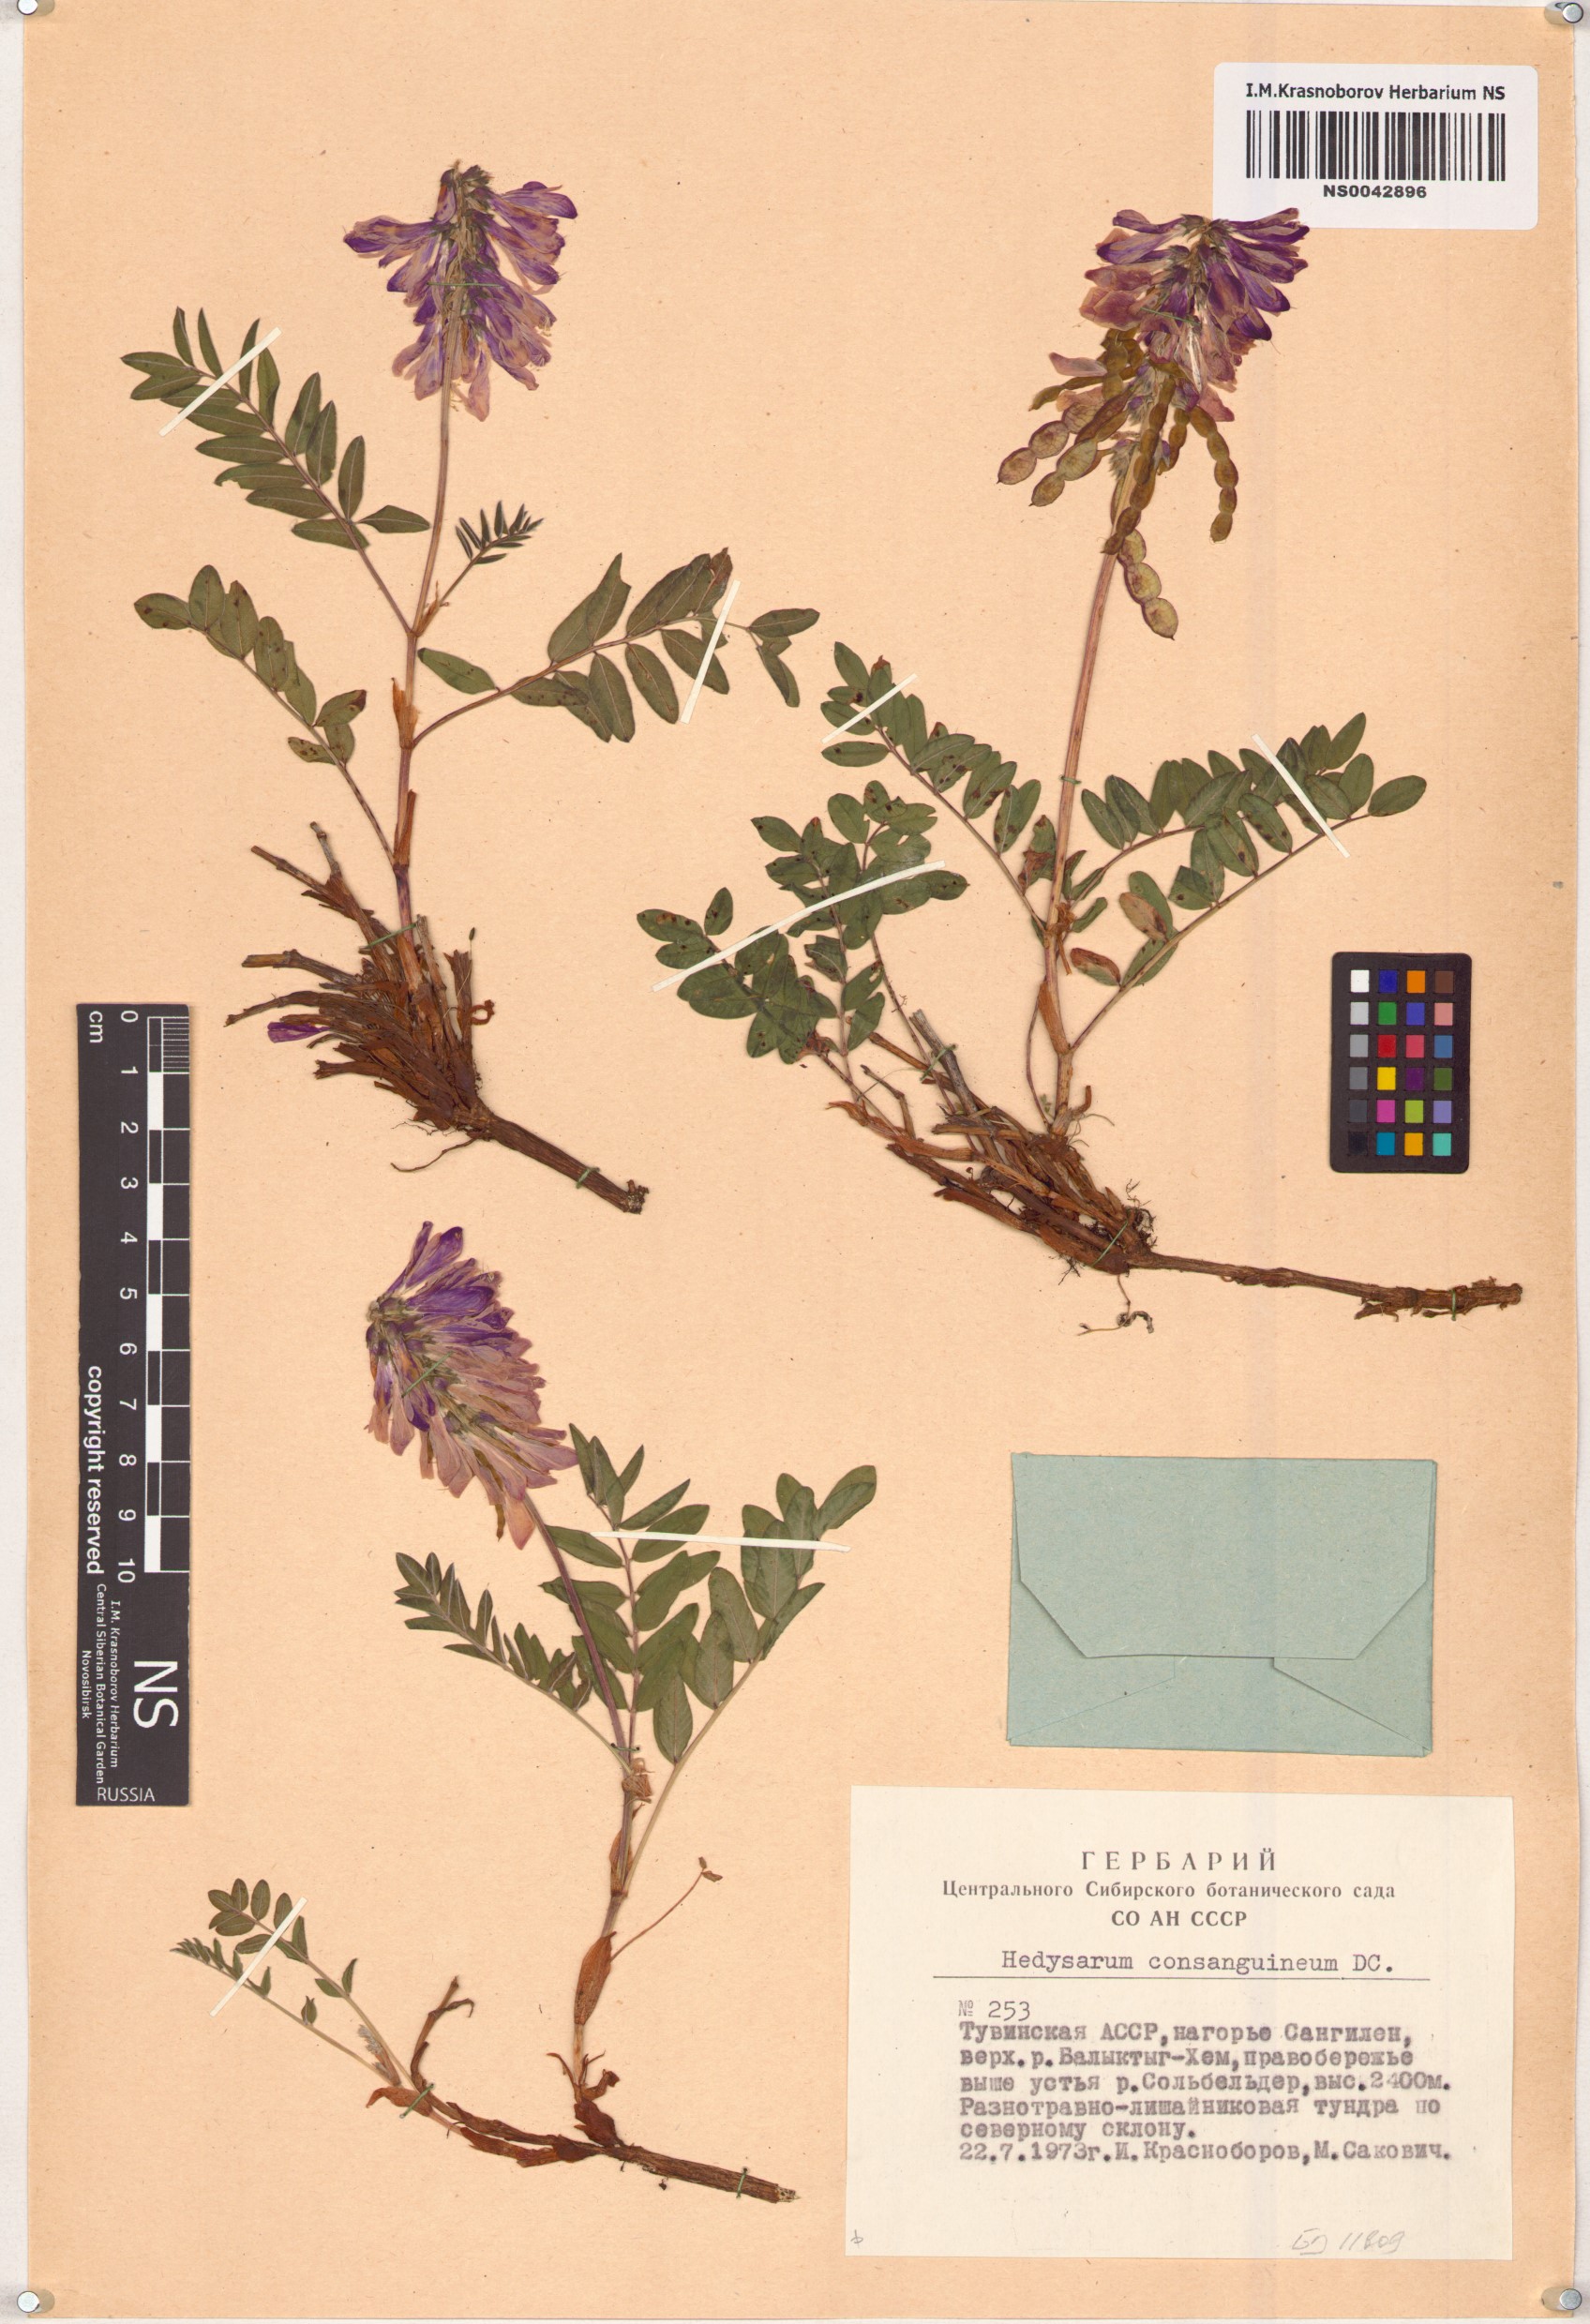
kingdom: Plantae
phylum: Tracheophyta
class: Magnoliopsida
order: Fabales
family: Fabaceae
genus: Hedysarum
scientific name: Hedysarum consanguineum
